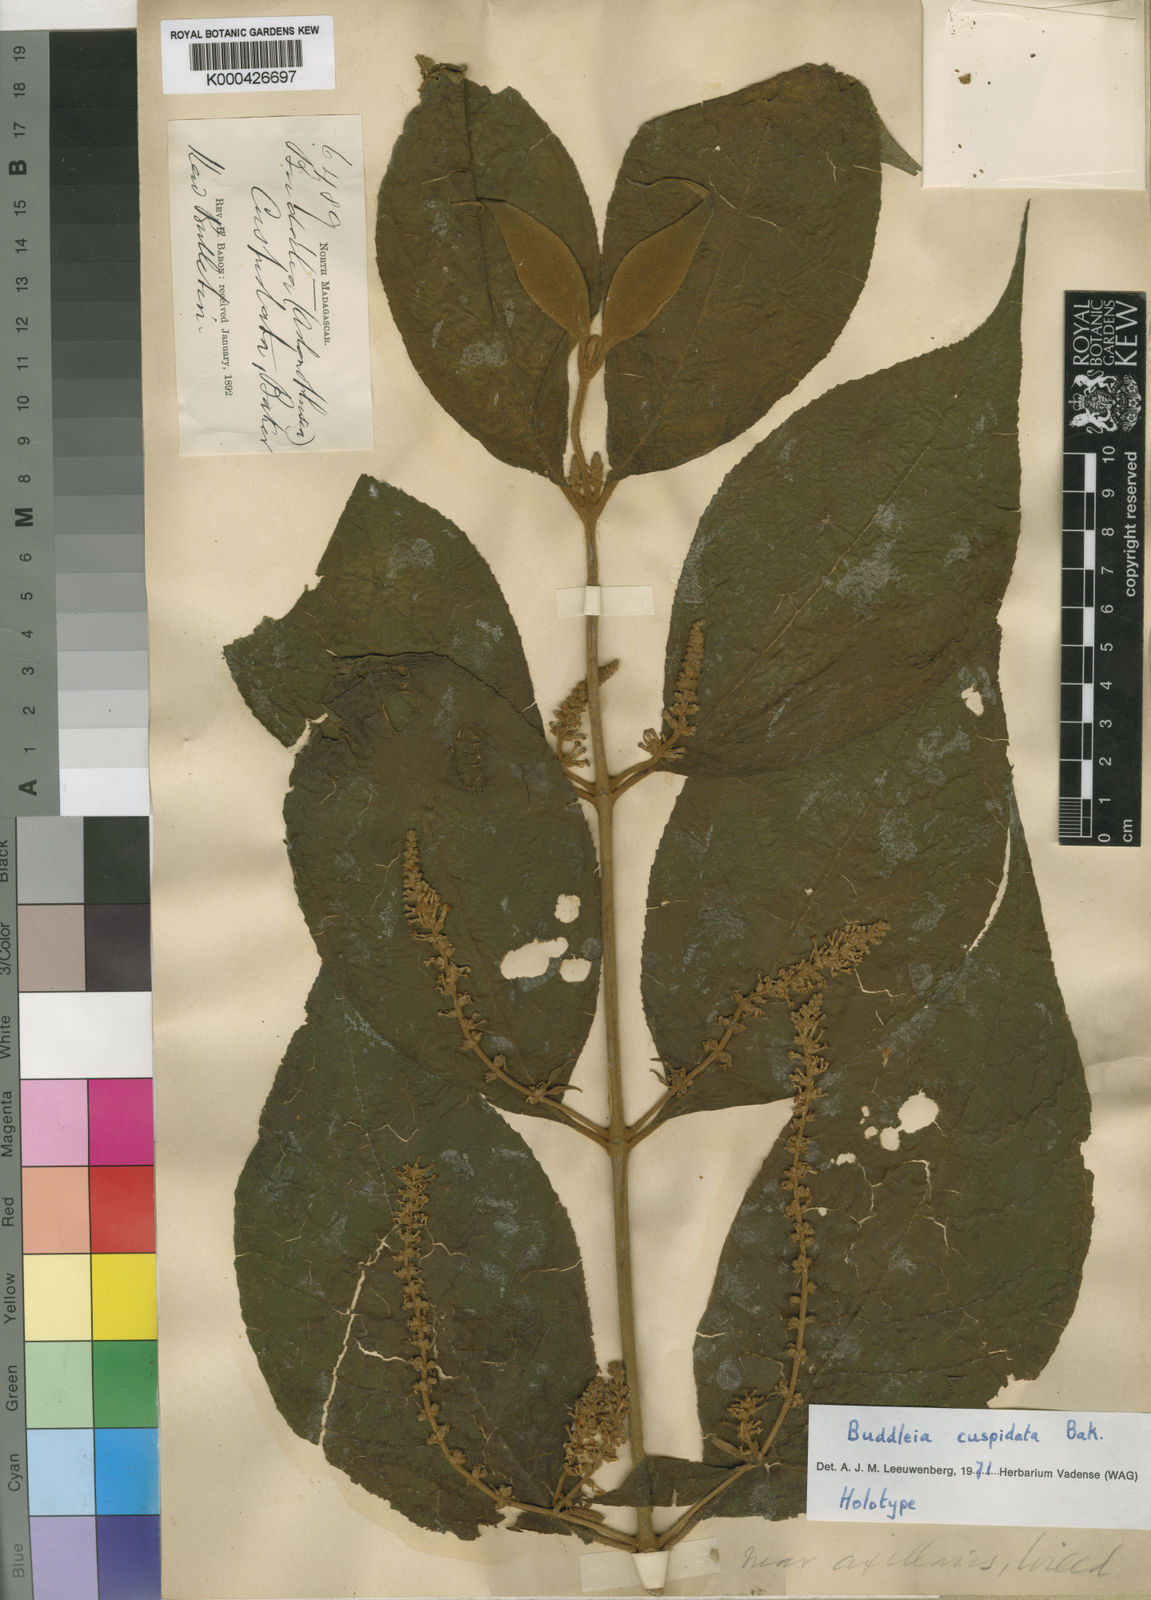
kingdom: Plantae
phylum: Tracheophyta
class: Magnoliopsida
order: Lamiales
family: Scrophulariaceae
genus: Buddleja
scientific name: Buddleja cuspidata
